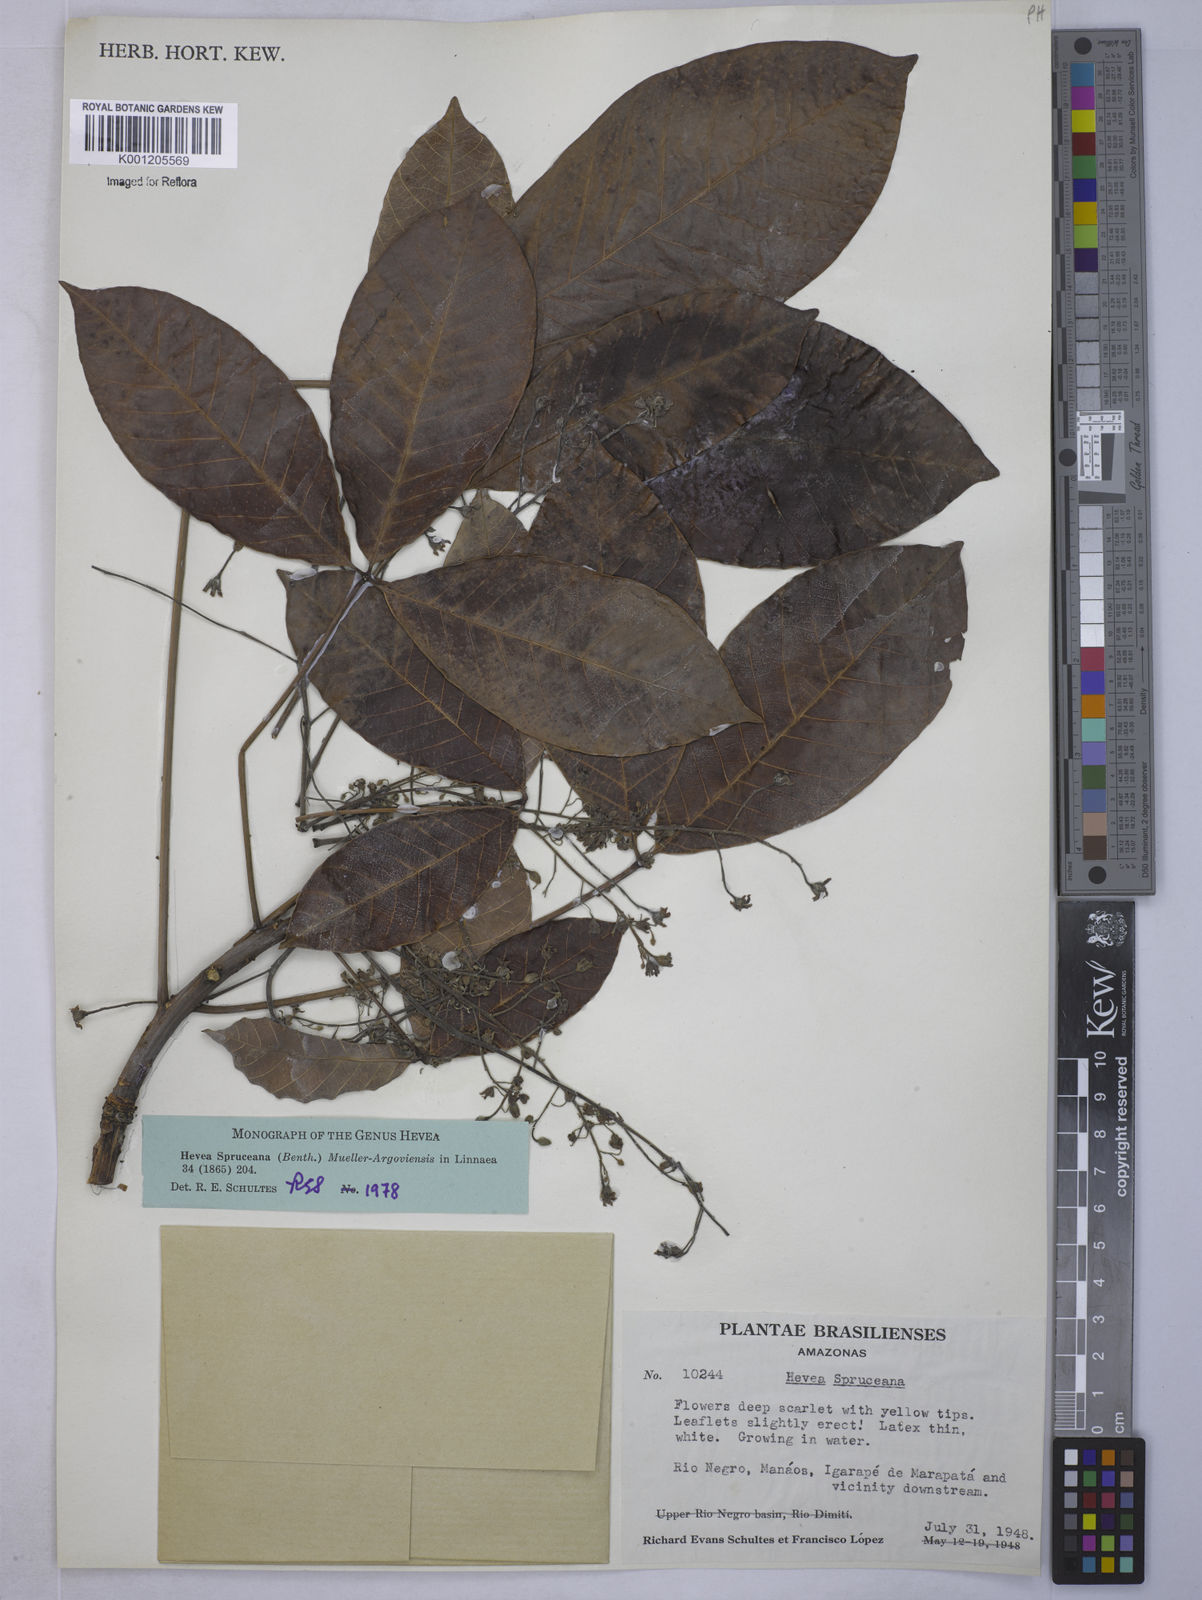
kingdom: Plantae
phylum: Tracheophyta
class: Magnoliopsida
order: Malpighiales
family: Euphorbiaceae
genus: Hevea
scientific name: Hevea
